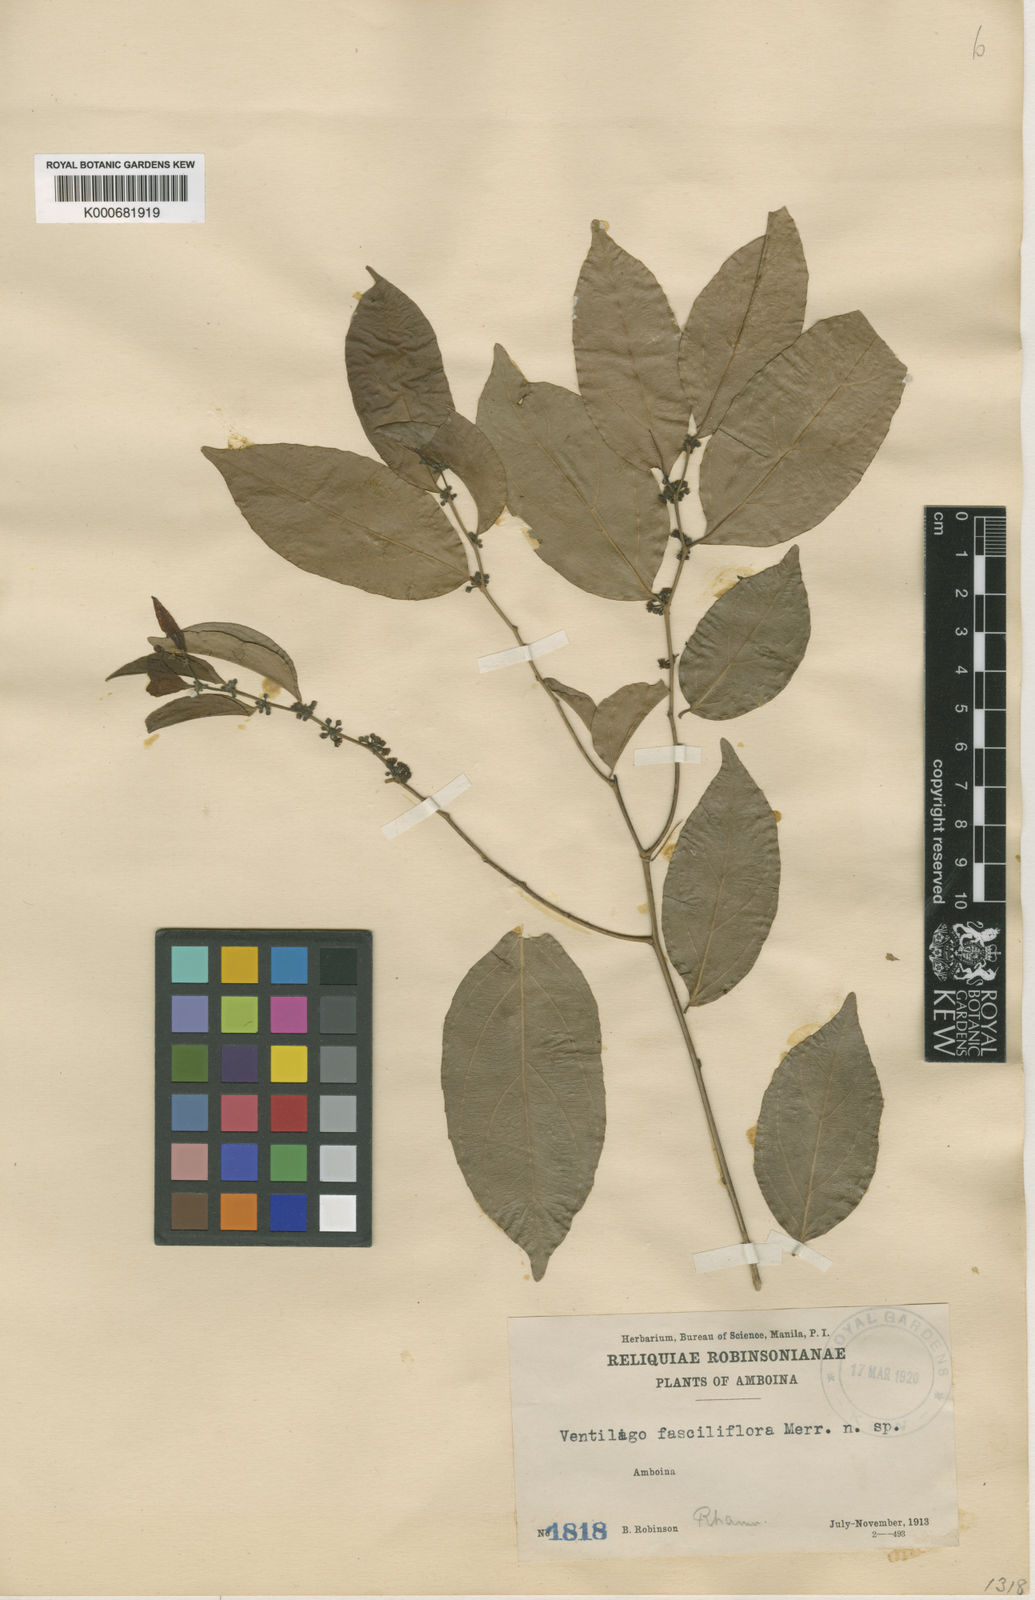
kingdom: Plantae
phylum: Tracheophyta
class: Magnoliopsida
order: Rosales
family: Rhamnaceae
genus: Smythea
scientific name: Smythea lanceata
